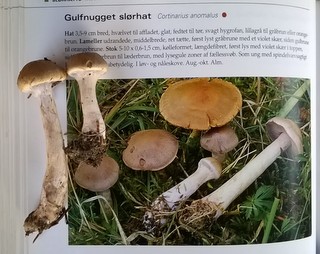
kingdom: Fungi
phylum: Basidiomycota
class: Agaricomycetes
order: Agaricales
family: Cortinariaceae
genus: Cortinarius
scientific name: Cortinarius
